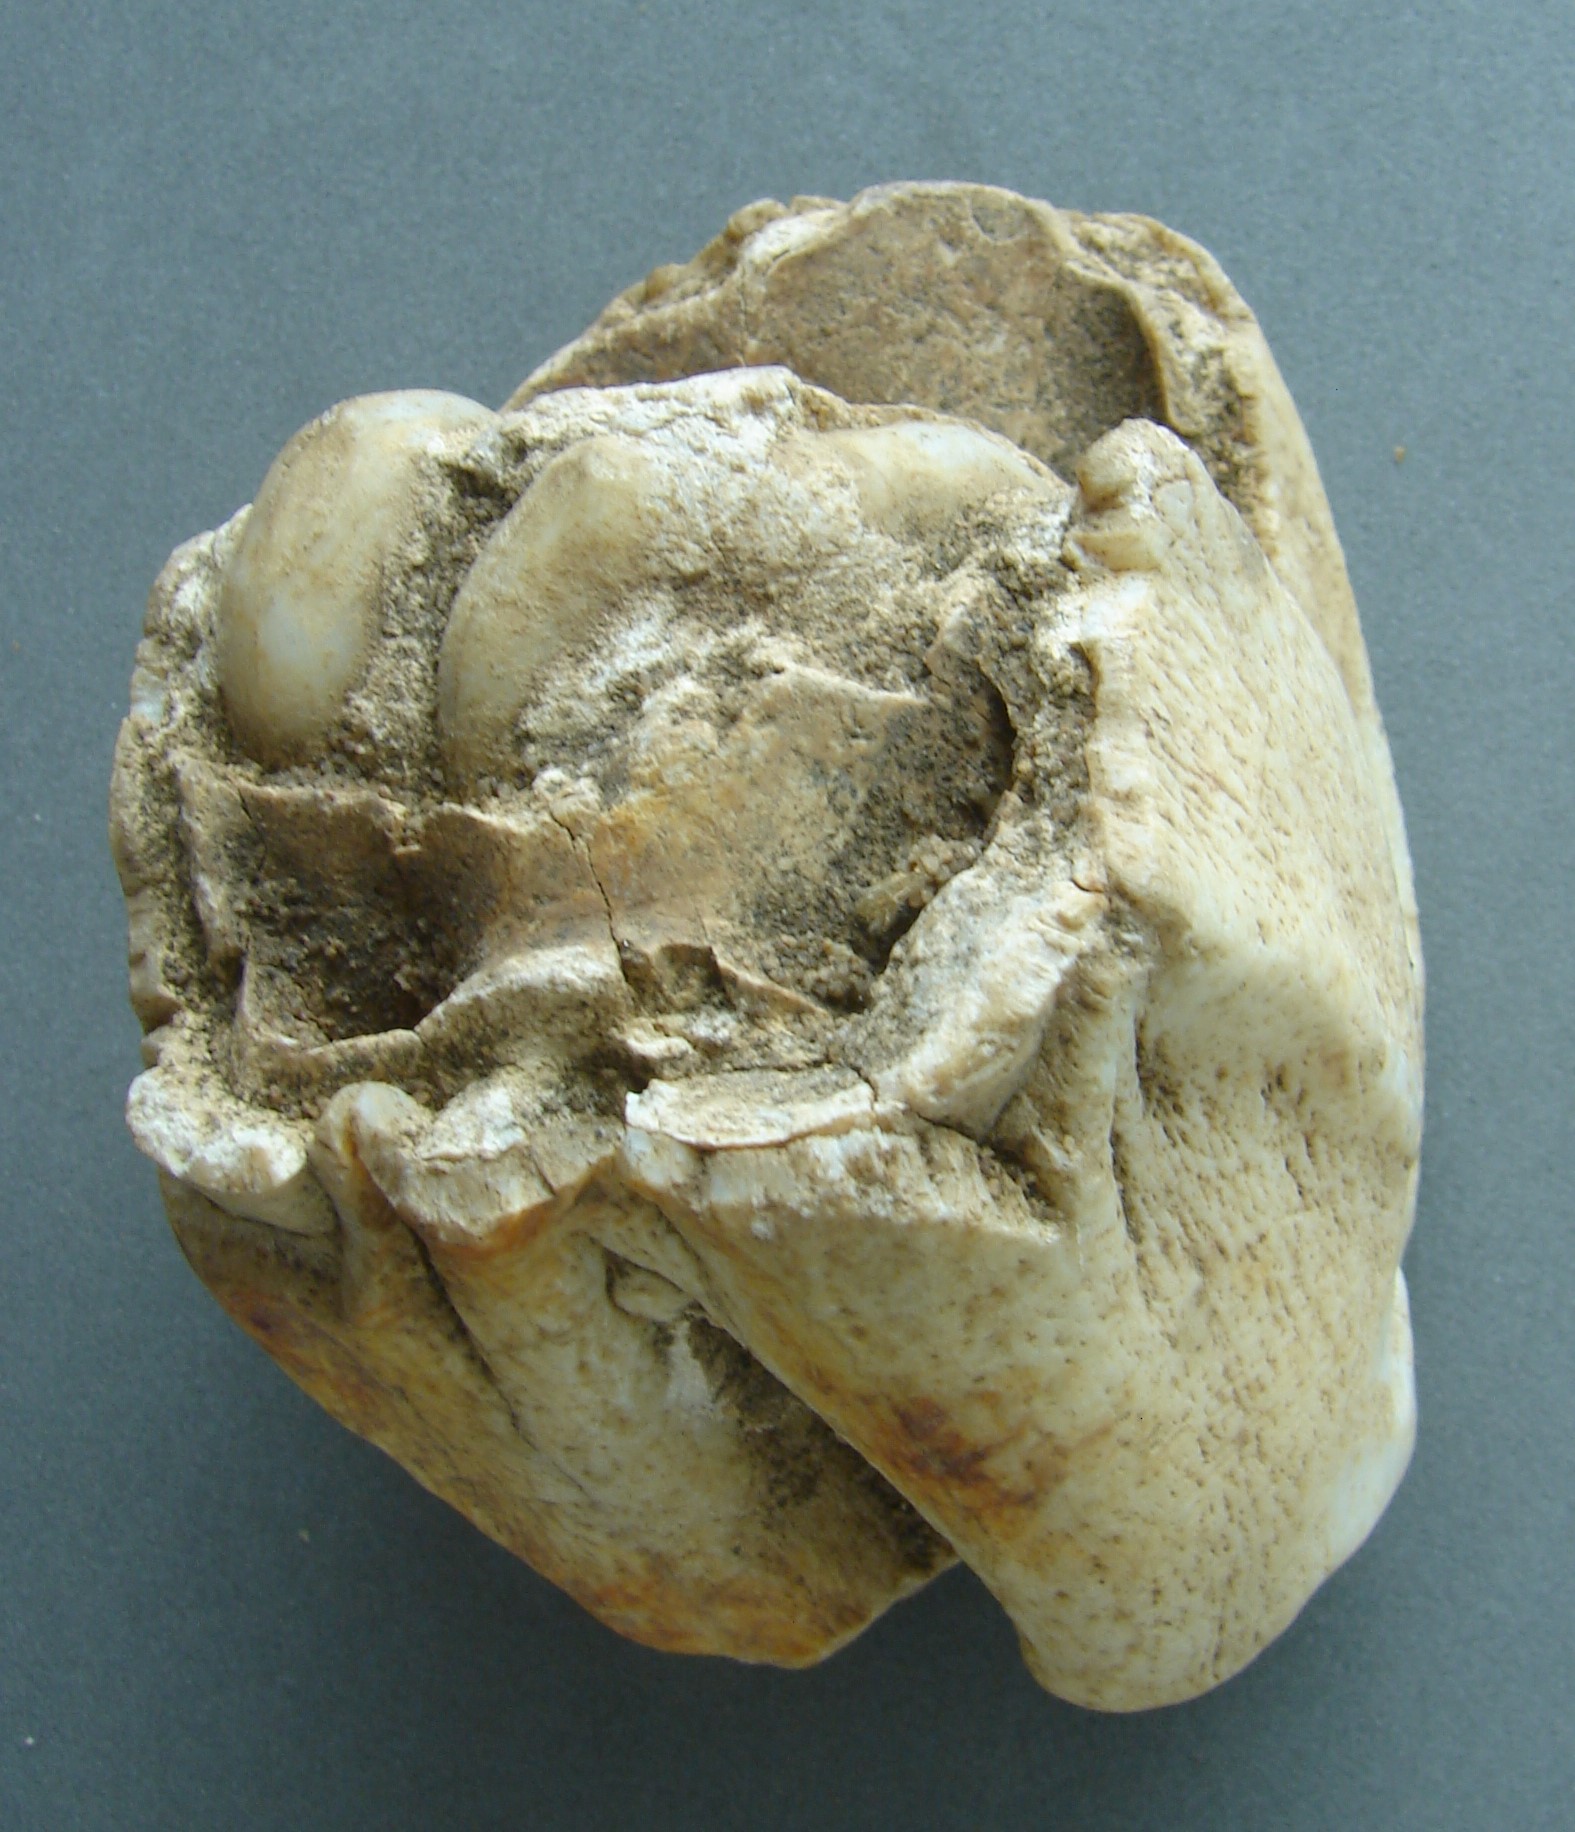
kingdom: Animalia
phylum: Chordata
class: Mammalia
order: Perissodactyla
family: Rhinocerotidae
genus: Rhinoceros
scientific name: Rhinoceros
